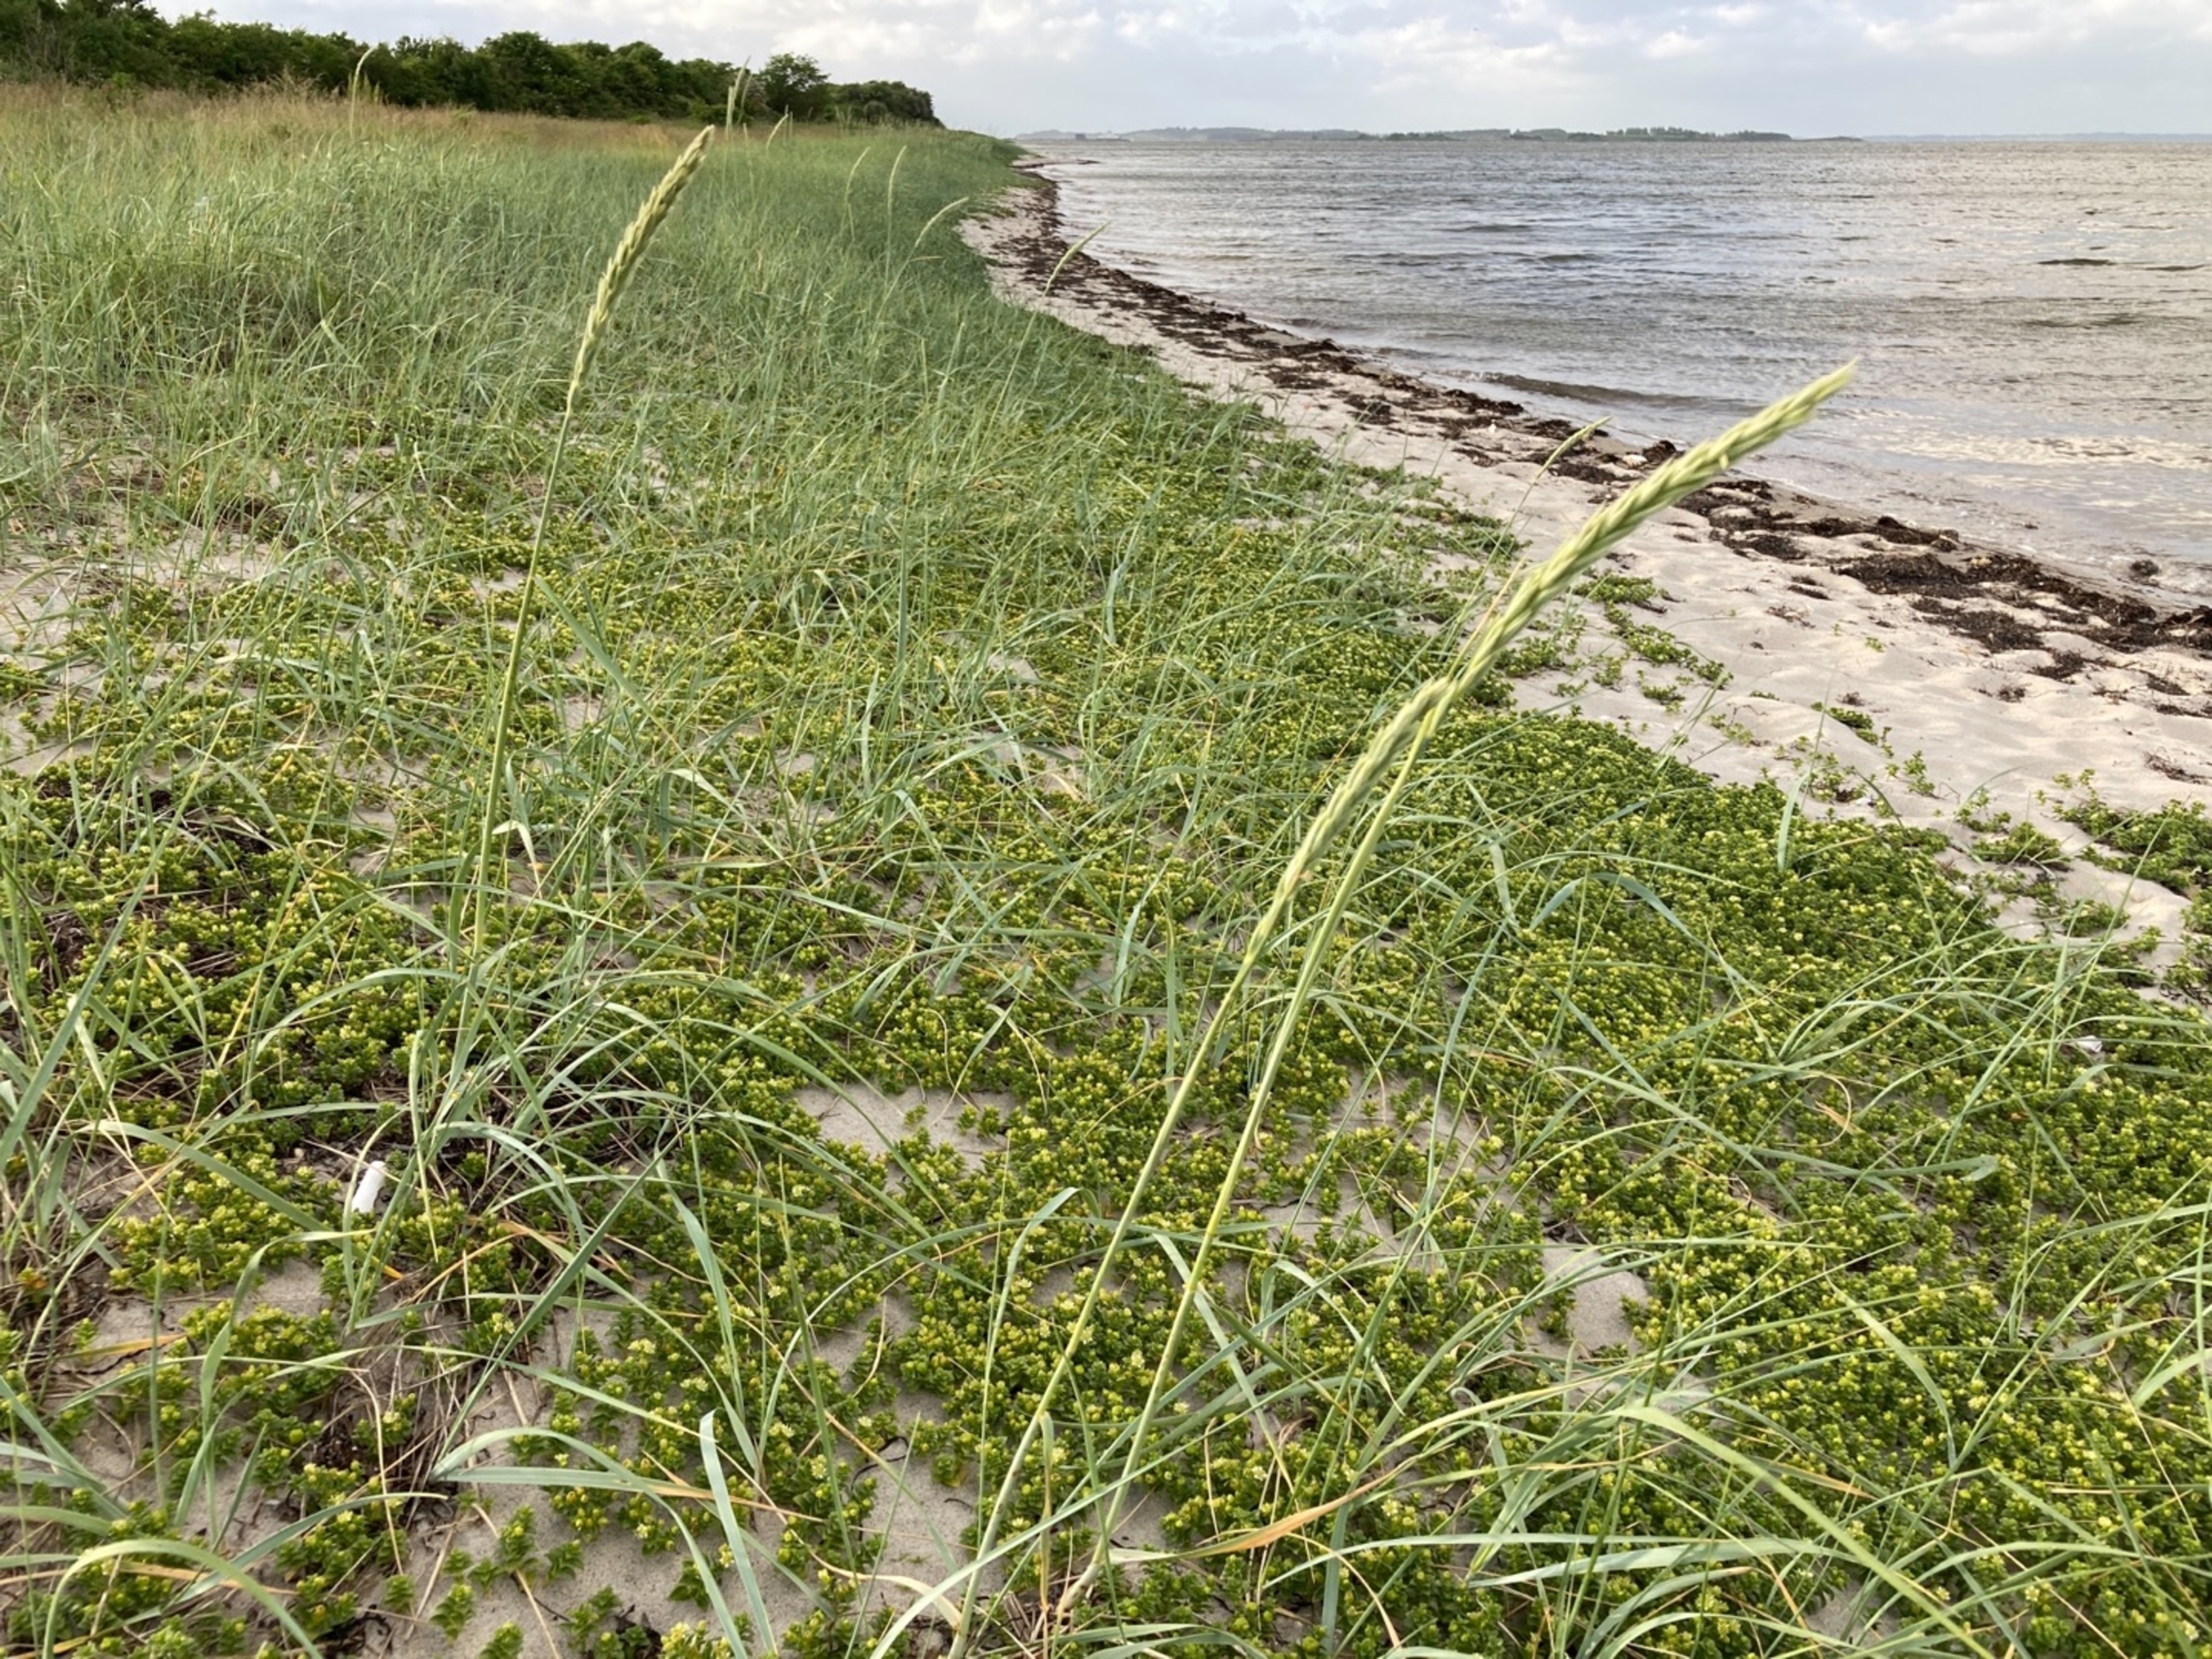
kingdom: Plantae
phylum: Tracheophyta
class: Liliopsida
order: Poales
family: Poaceae
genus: Leymus
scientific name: Leymus arenarius
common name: Marehalm
